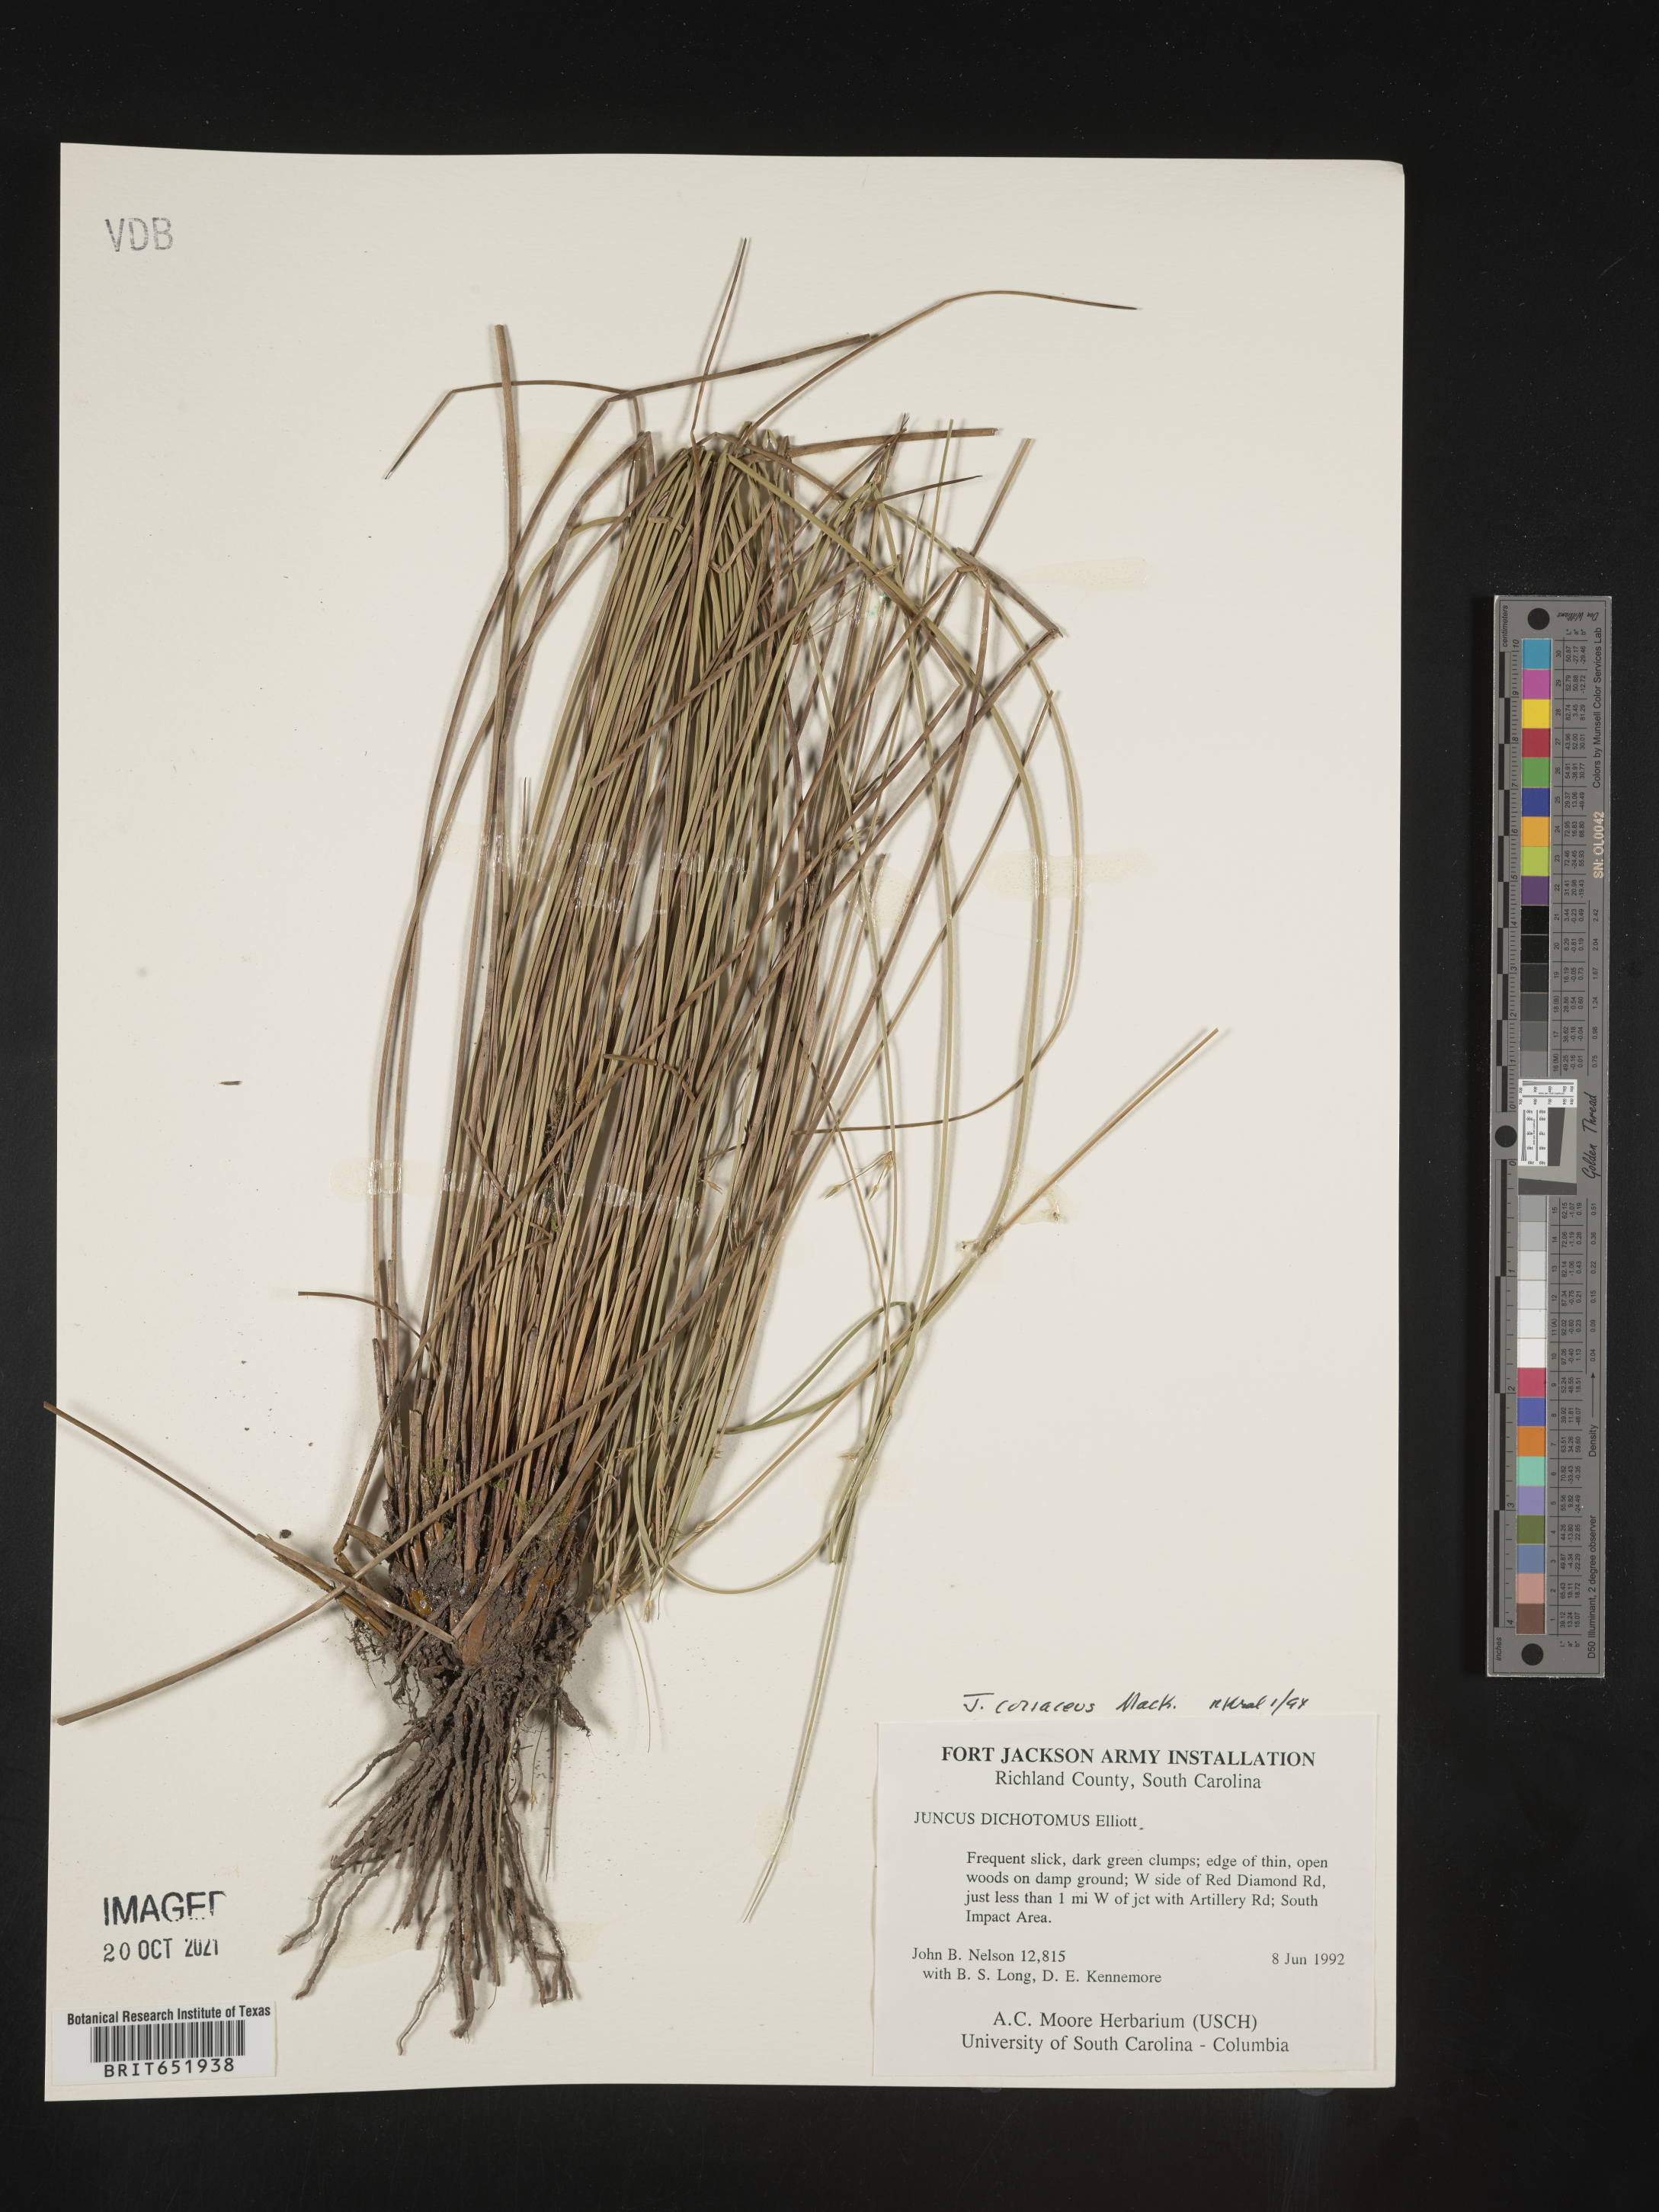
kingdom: Plantae
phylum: Tracheophyta
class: Liliopsida
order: Poales
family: Juncaceae
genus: Juncus
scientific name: Juncus coriaceus
